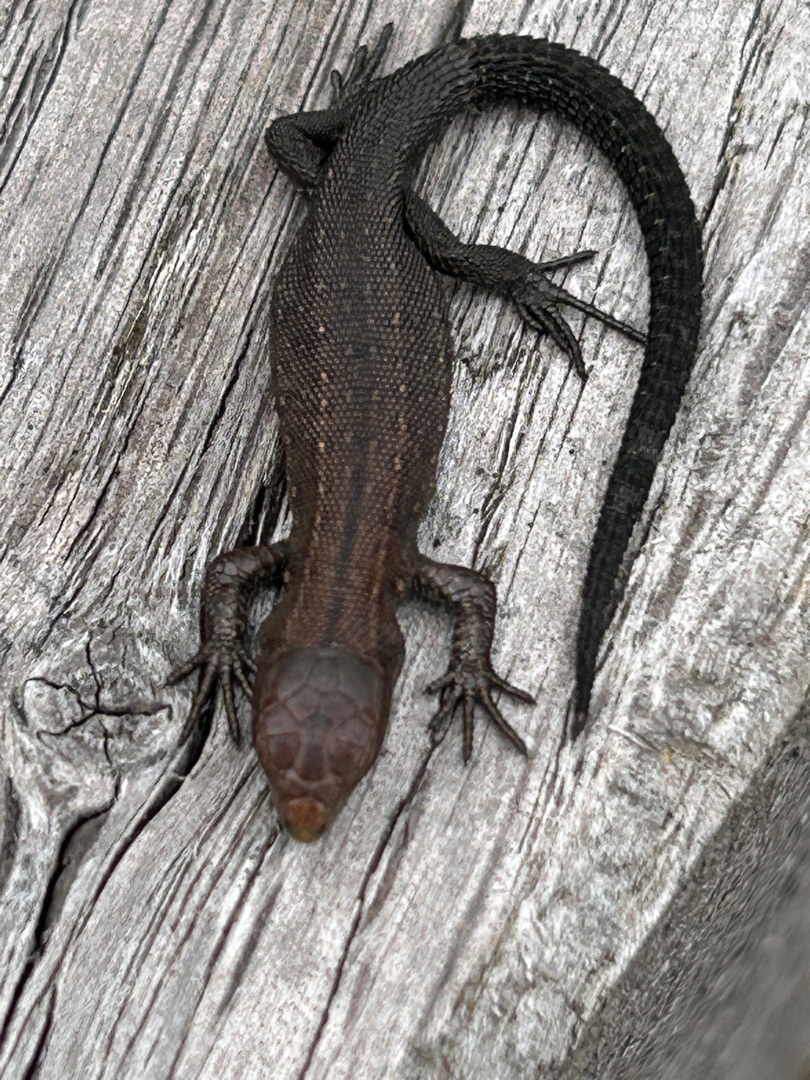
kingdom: Animalia
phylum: Chordata
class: Squamata
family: Lacertidae
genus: Zootoca
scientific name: Zootoca vivipara
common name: Skovfirben
